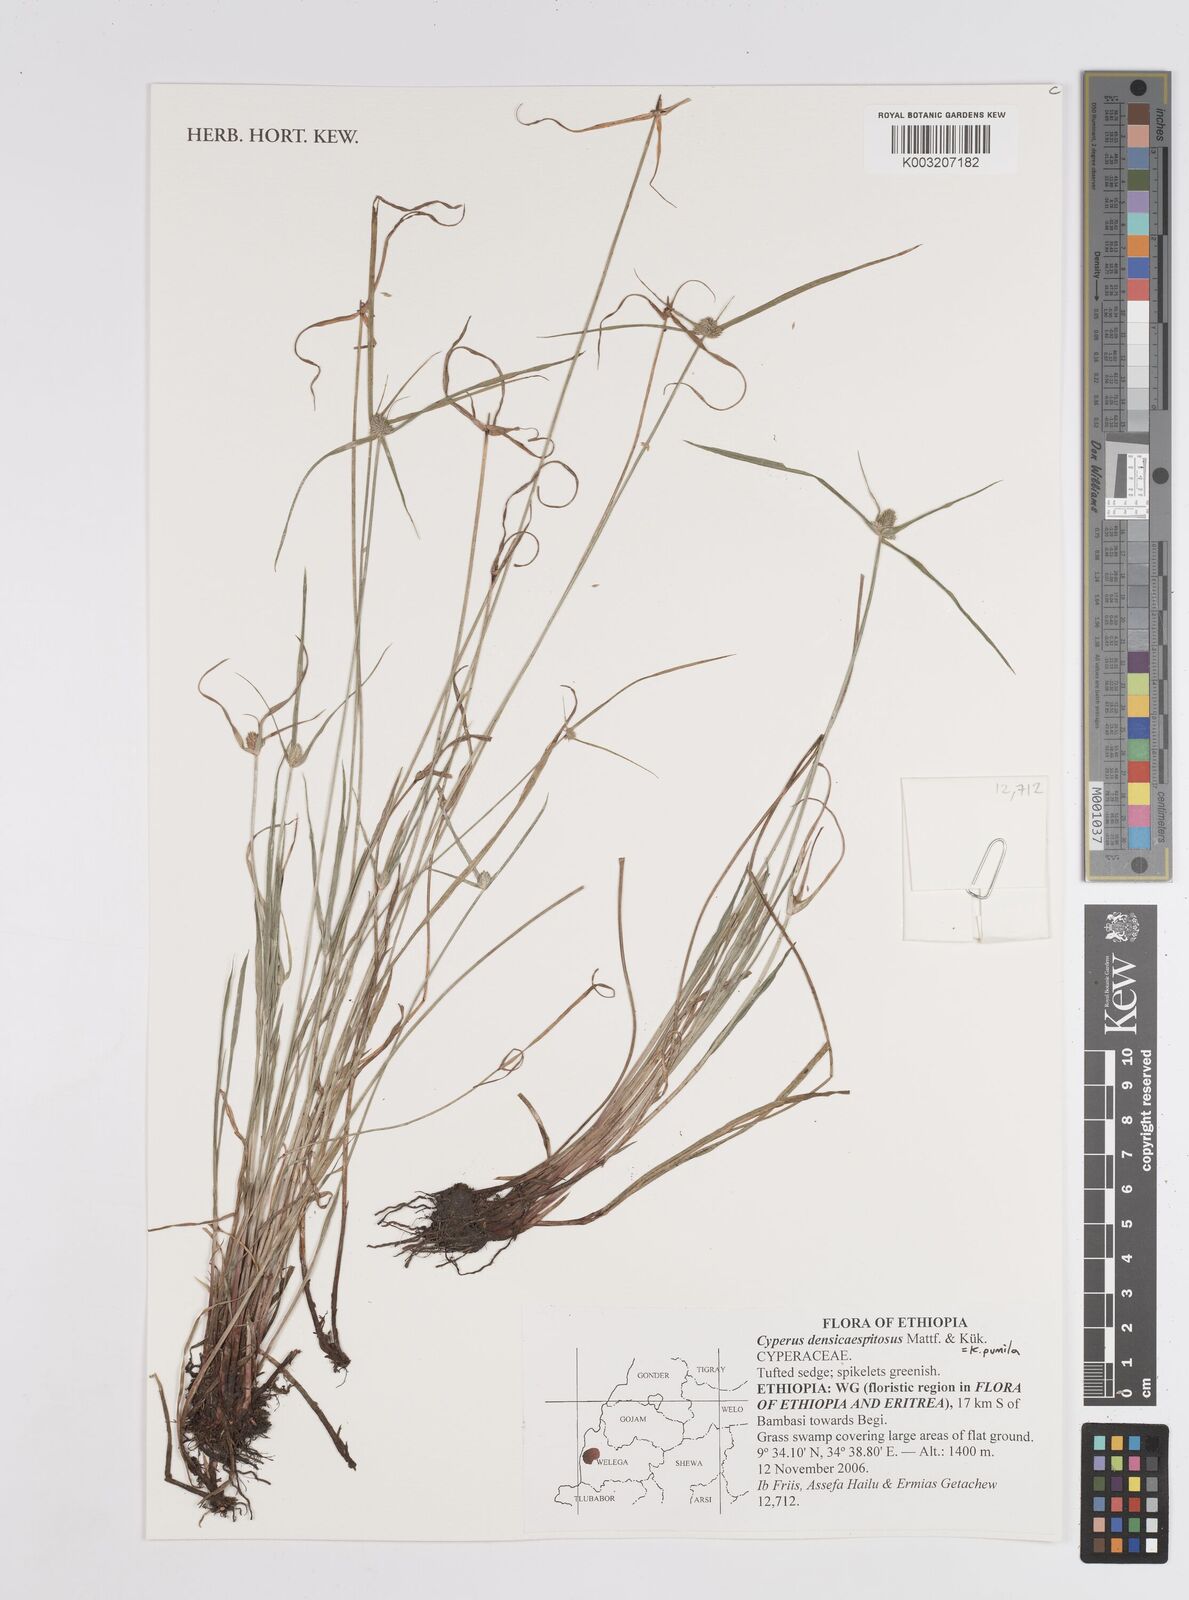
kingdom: Plantae
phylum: Tracheophyta
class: Liliopsida
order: Poales
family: Cyperaceae
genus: Cyperus
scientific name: Cyperus
